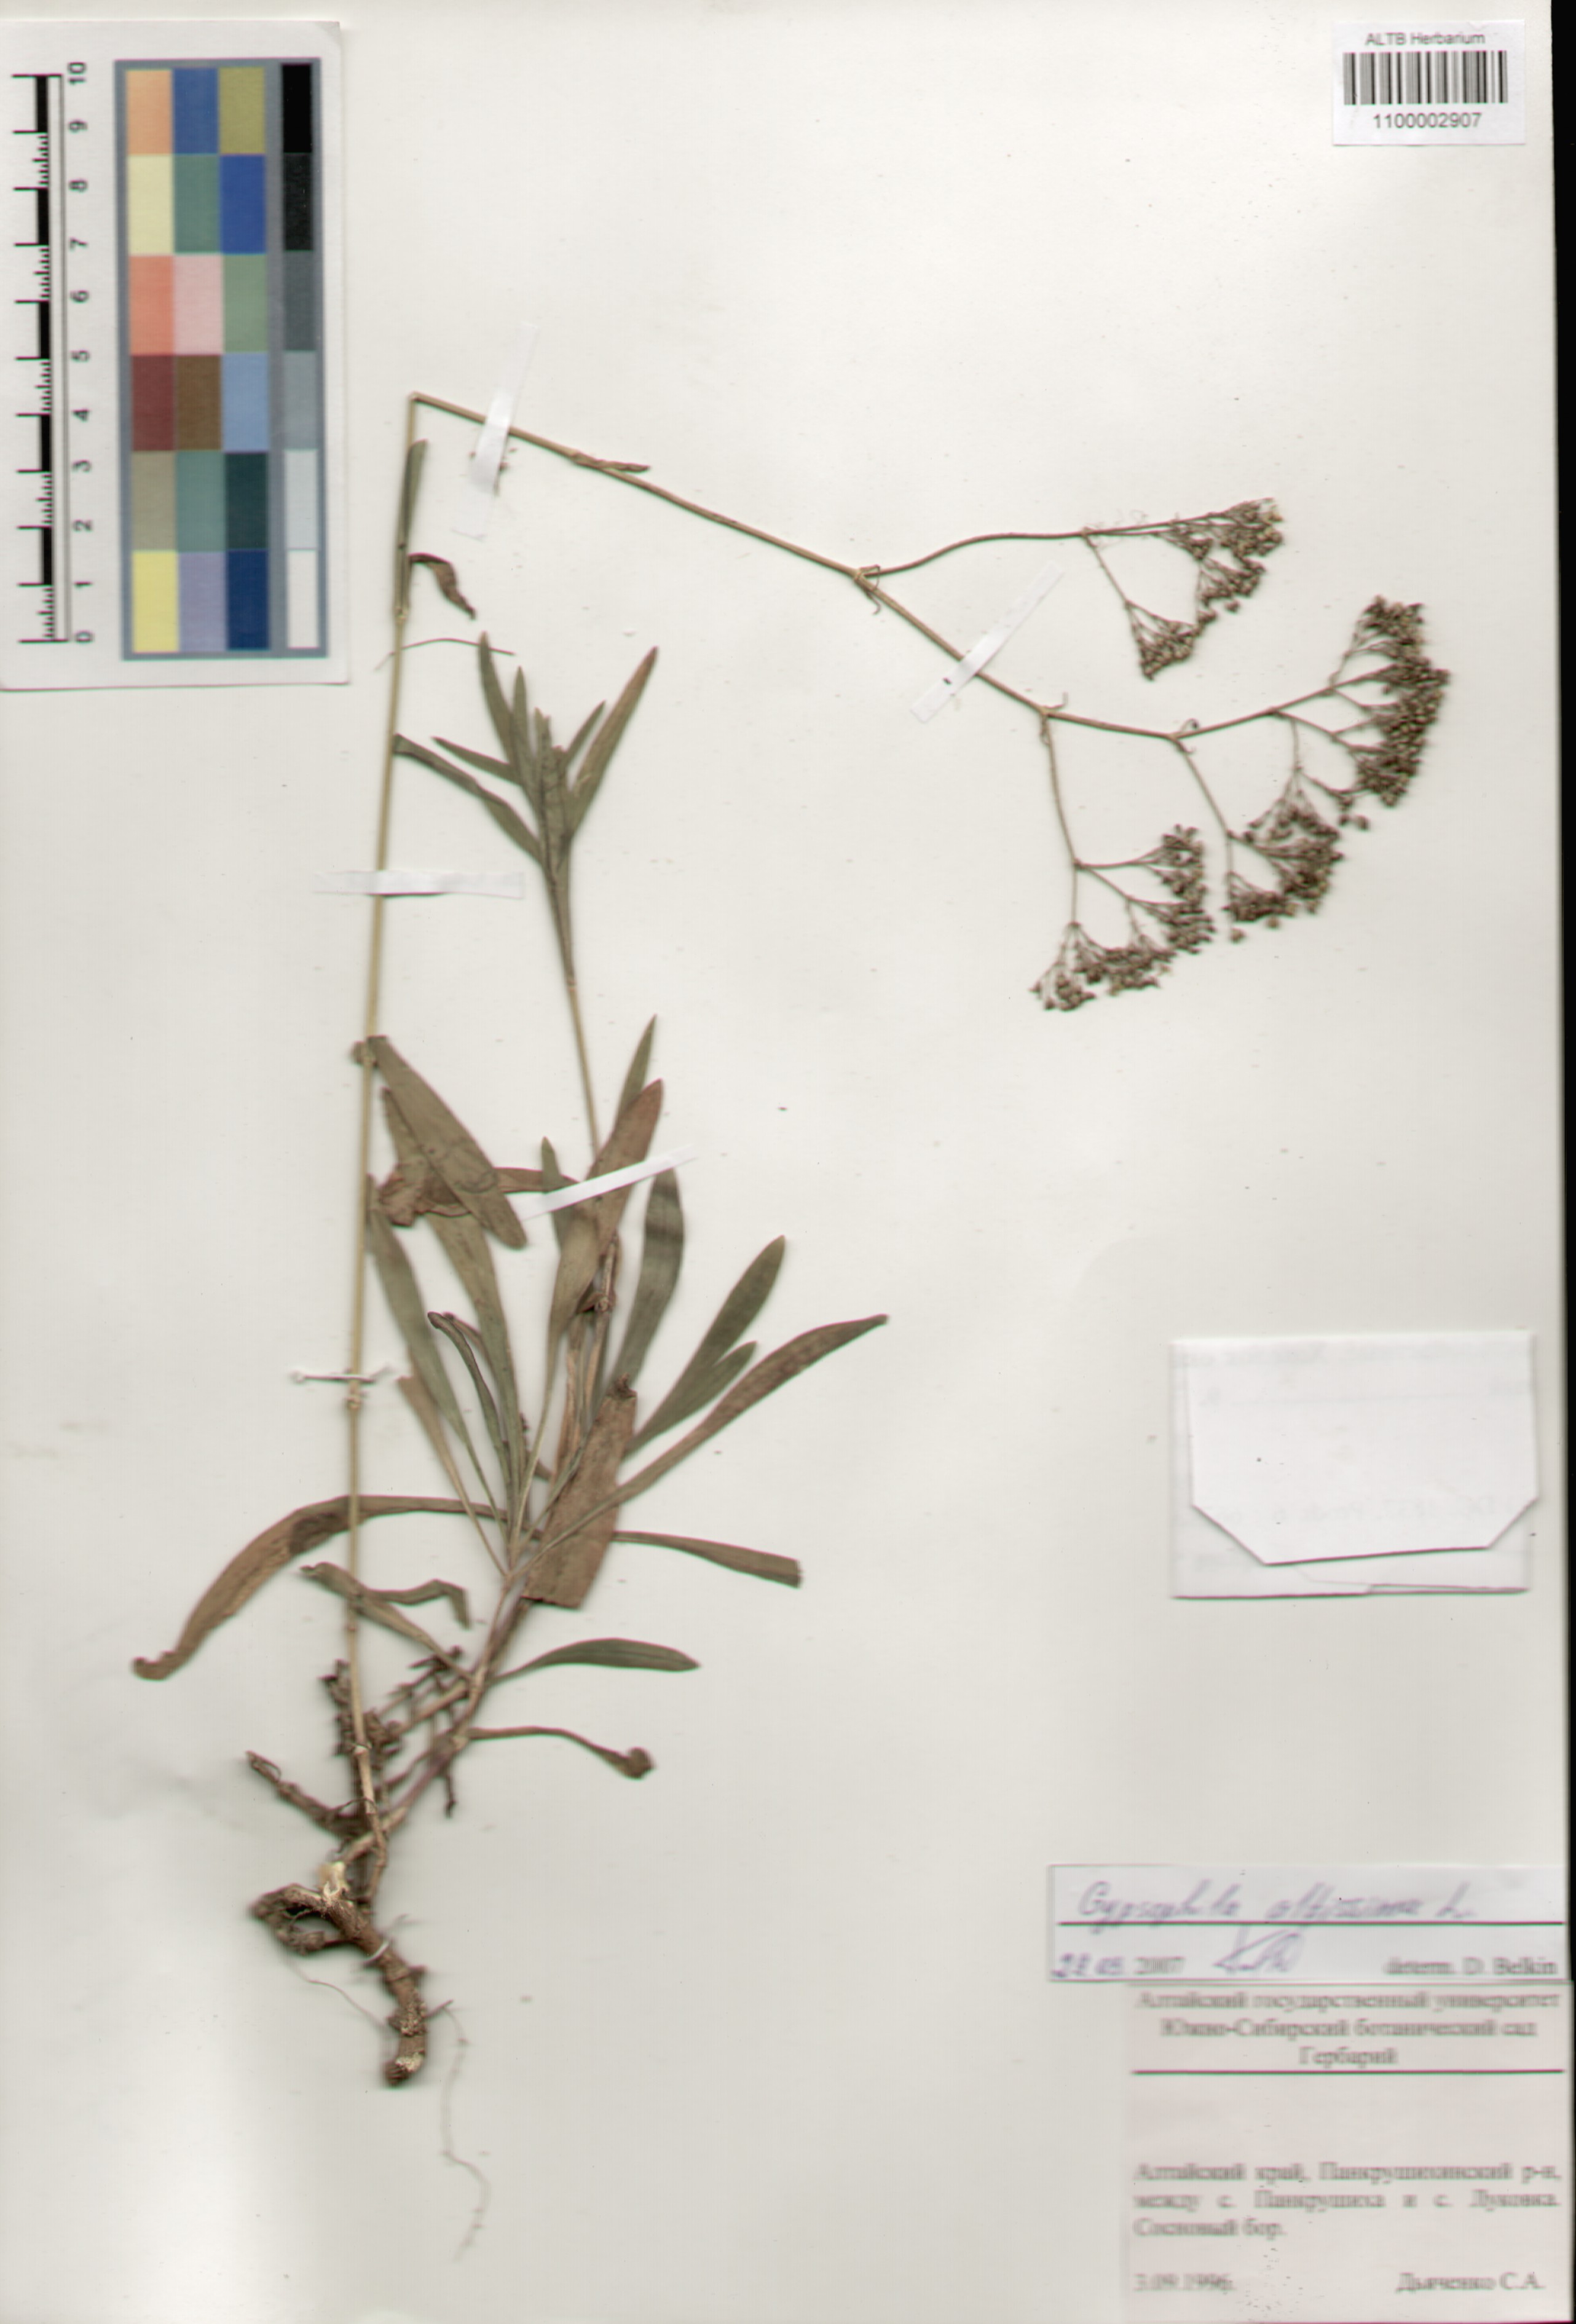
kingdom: Plantae
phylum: Tracheophyta
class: Magnoliopsida
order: Caryophyllales
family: Caryophyllaceae
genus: Gypsophila
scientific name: Gypsophila altissima
